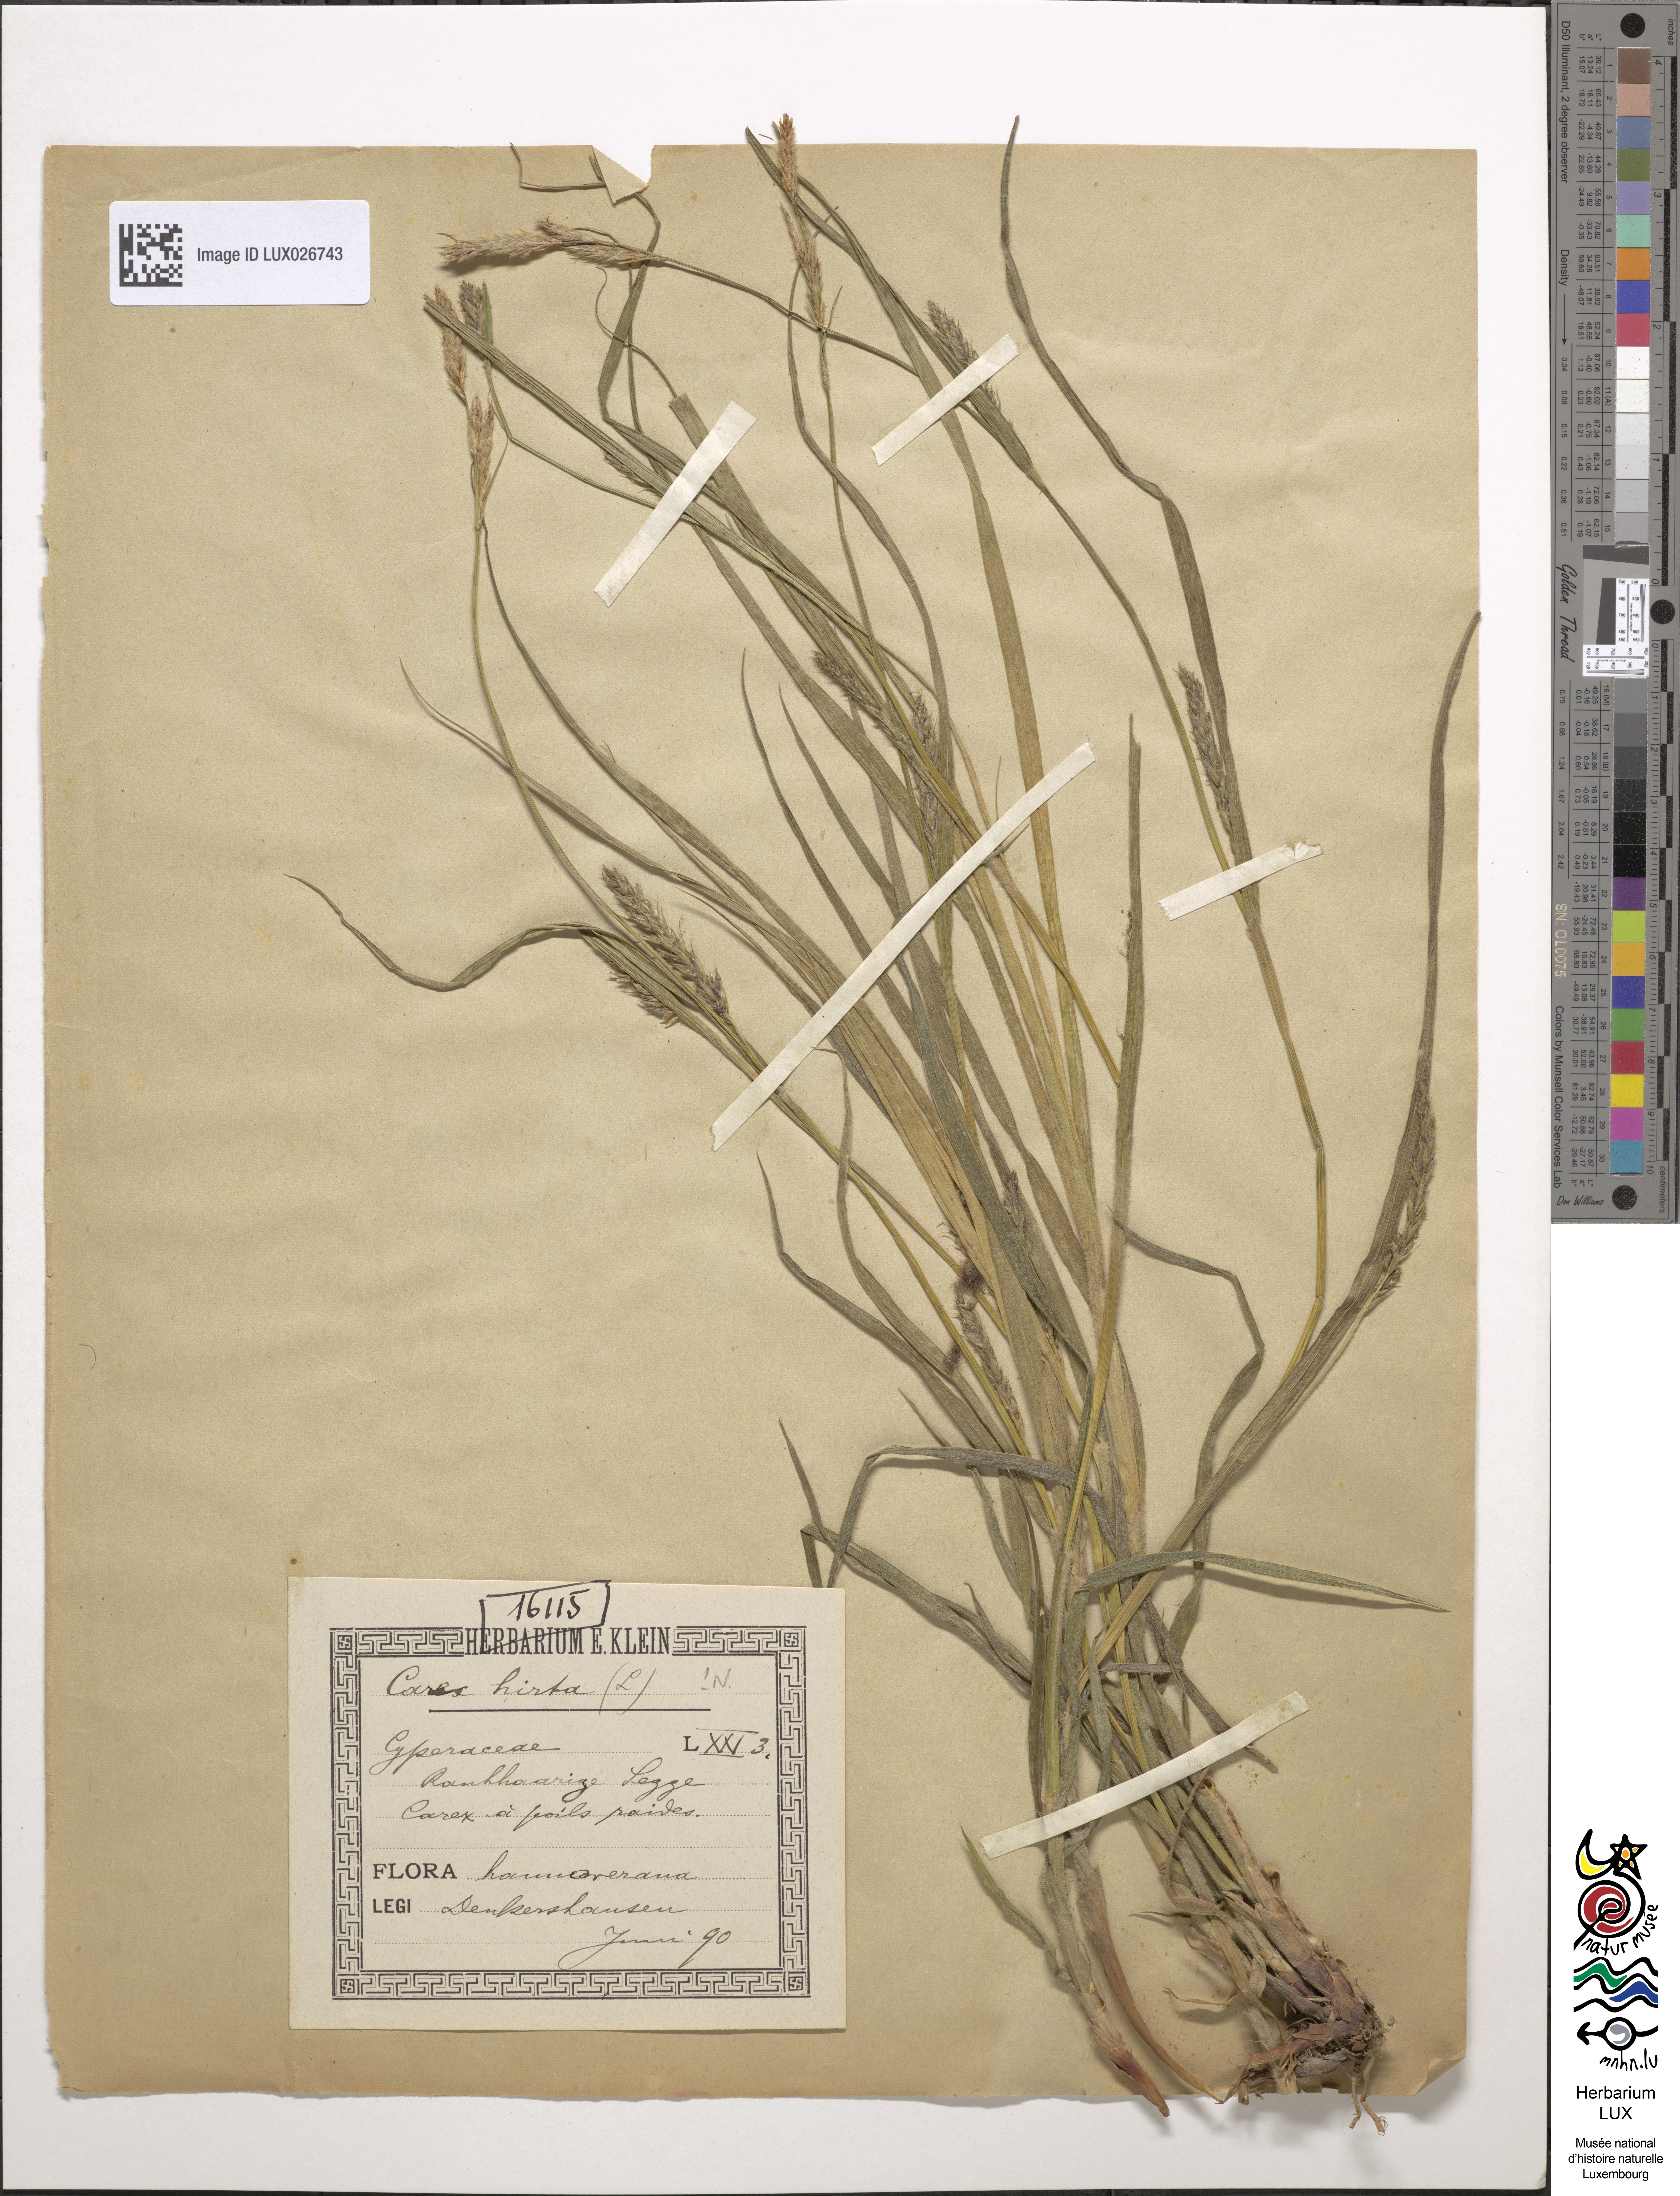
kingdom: Plantae
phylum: Tracheophyta
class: Liliopsida
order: Poales
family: Cyperaceae
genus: Carex
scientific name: Carex hirta
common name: Hairy sedge
